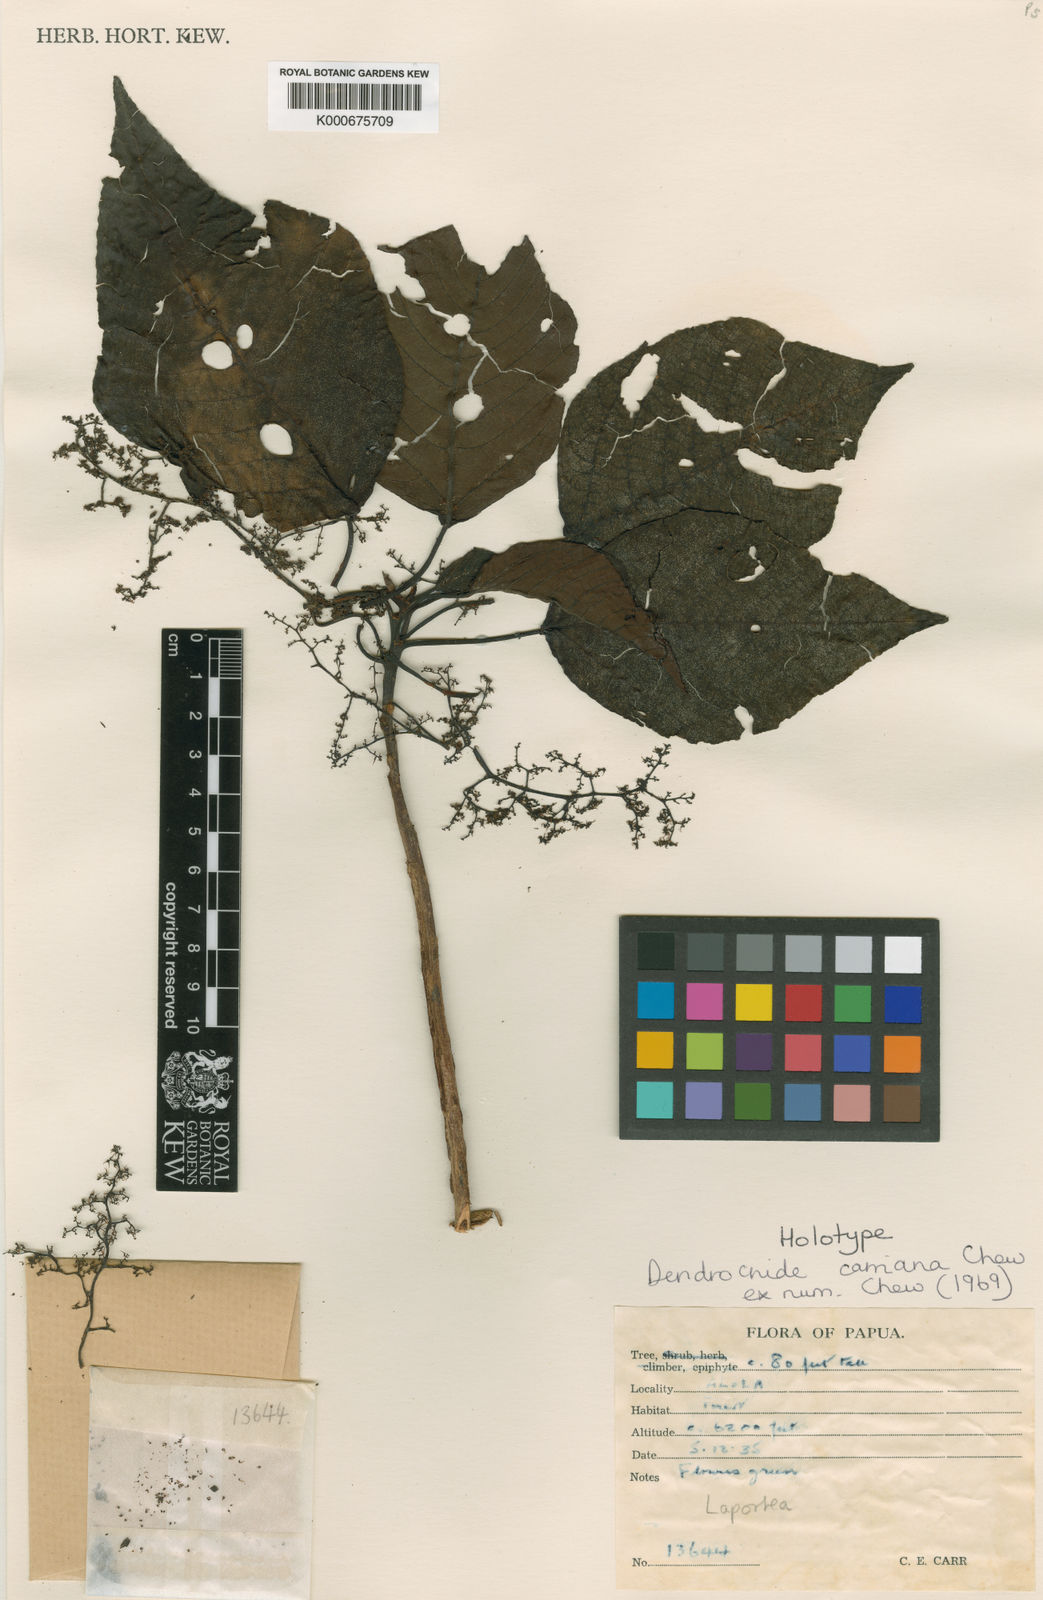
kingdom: Plantae
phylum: Tracheophyta
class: Magnoliopsida
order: Rosales
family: Urticaceae
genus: Dendrocnide
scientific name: Dendrocnide carriana
